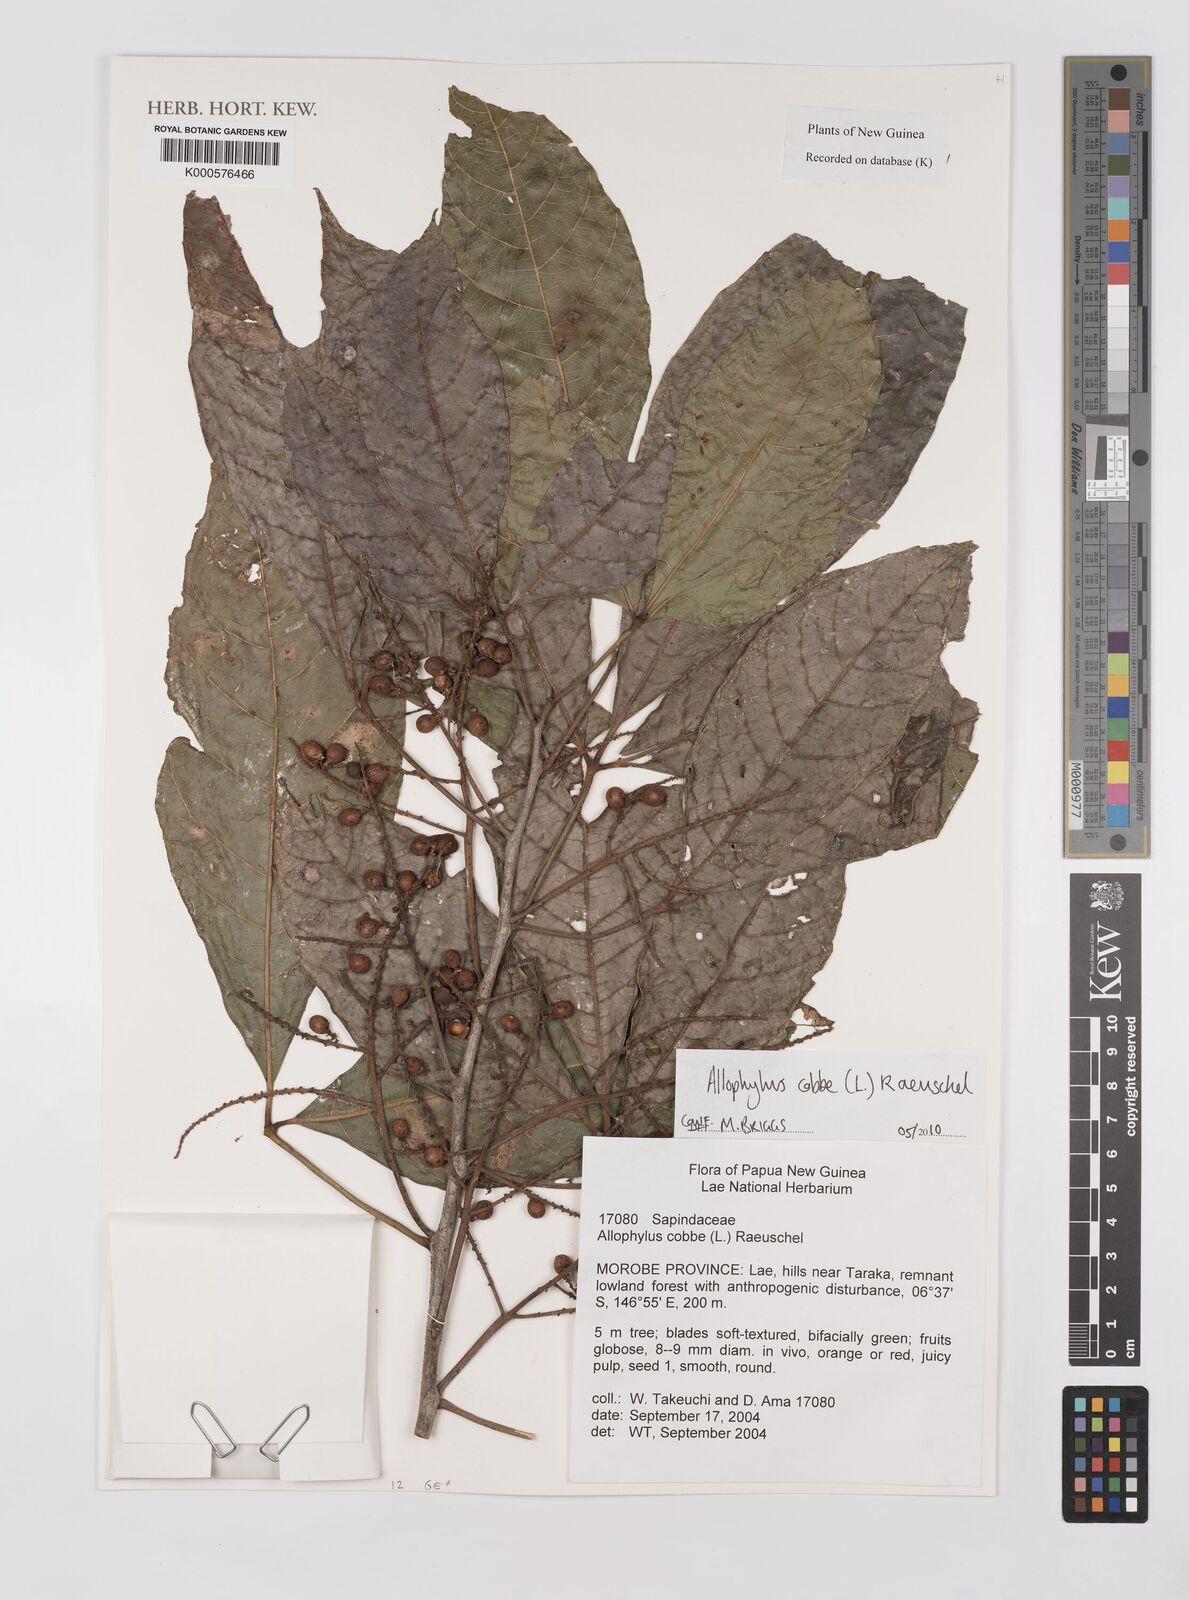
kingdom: Plantae
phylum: Tracheophyta
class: Magnoliopsida
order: Sapindales
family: Sapindaceae
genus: Allophylus
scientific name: Allophylus
